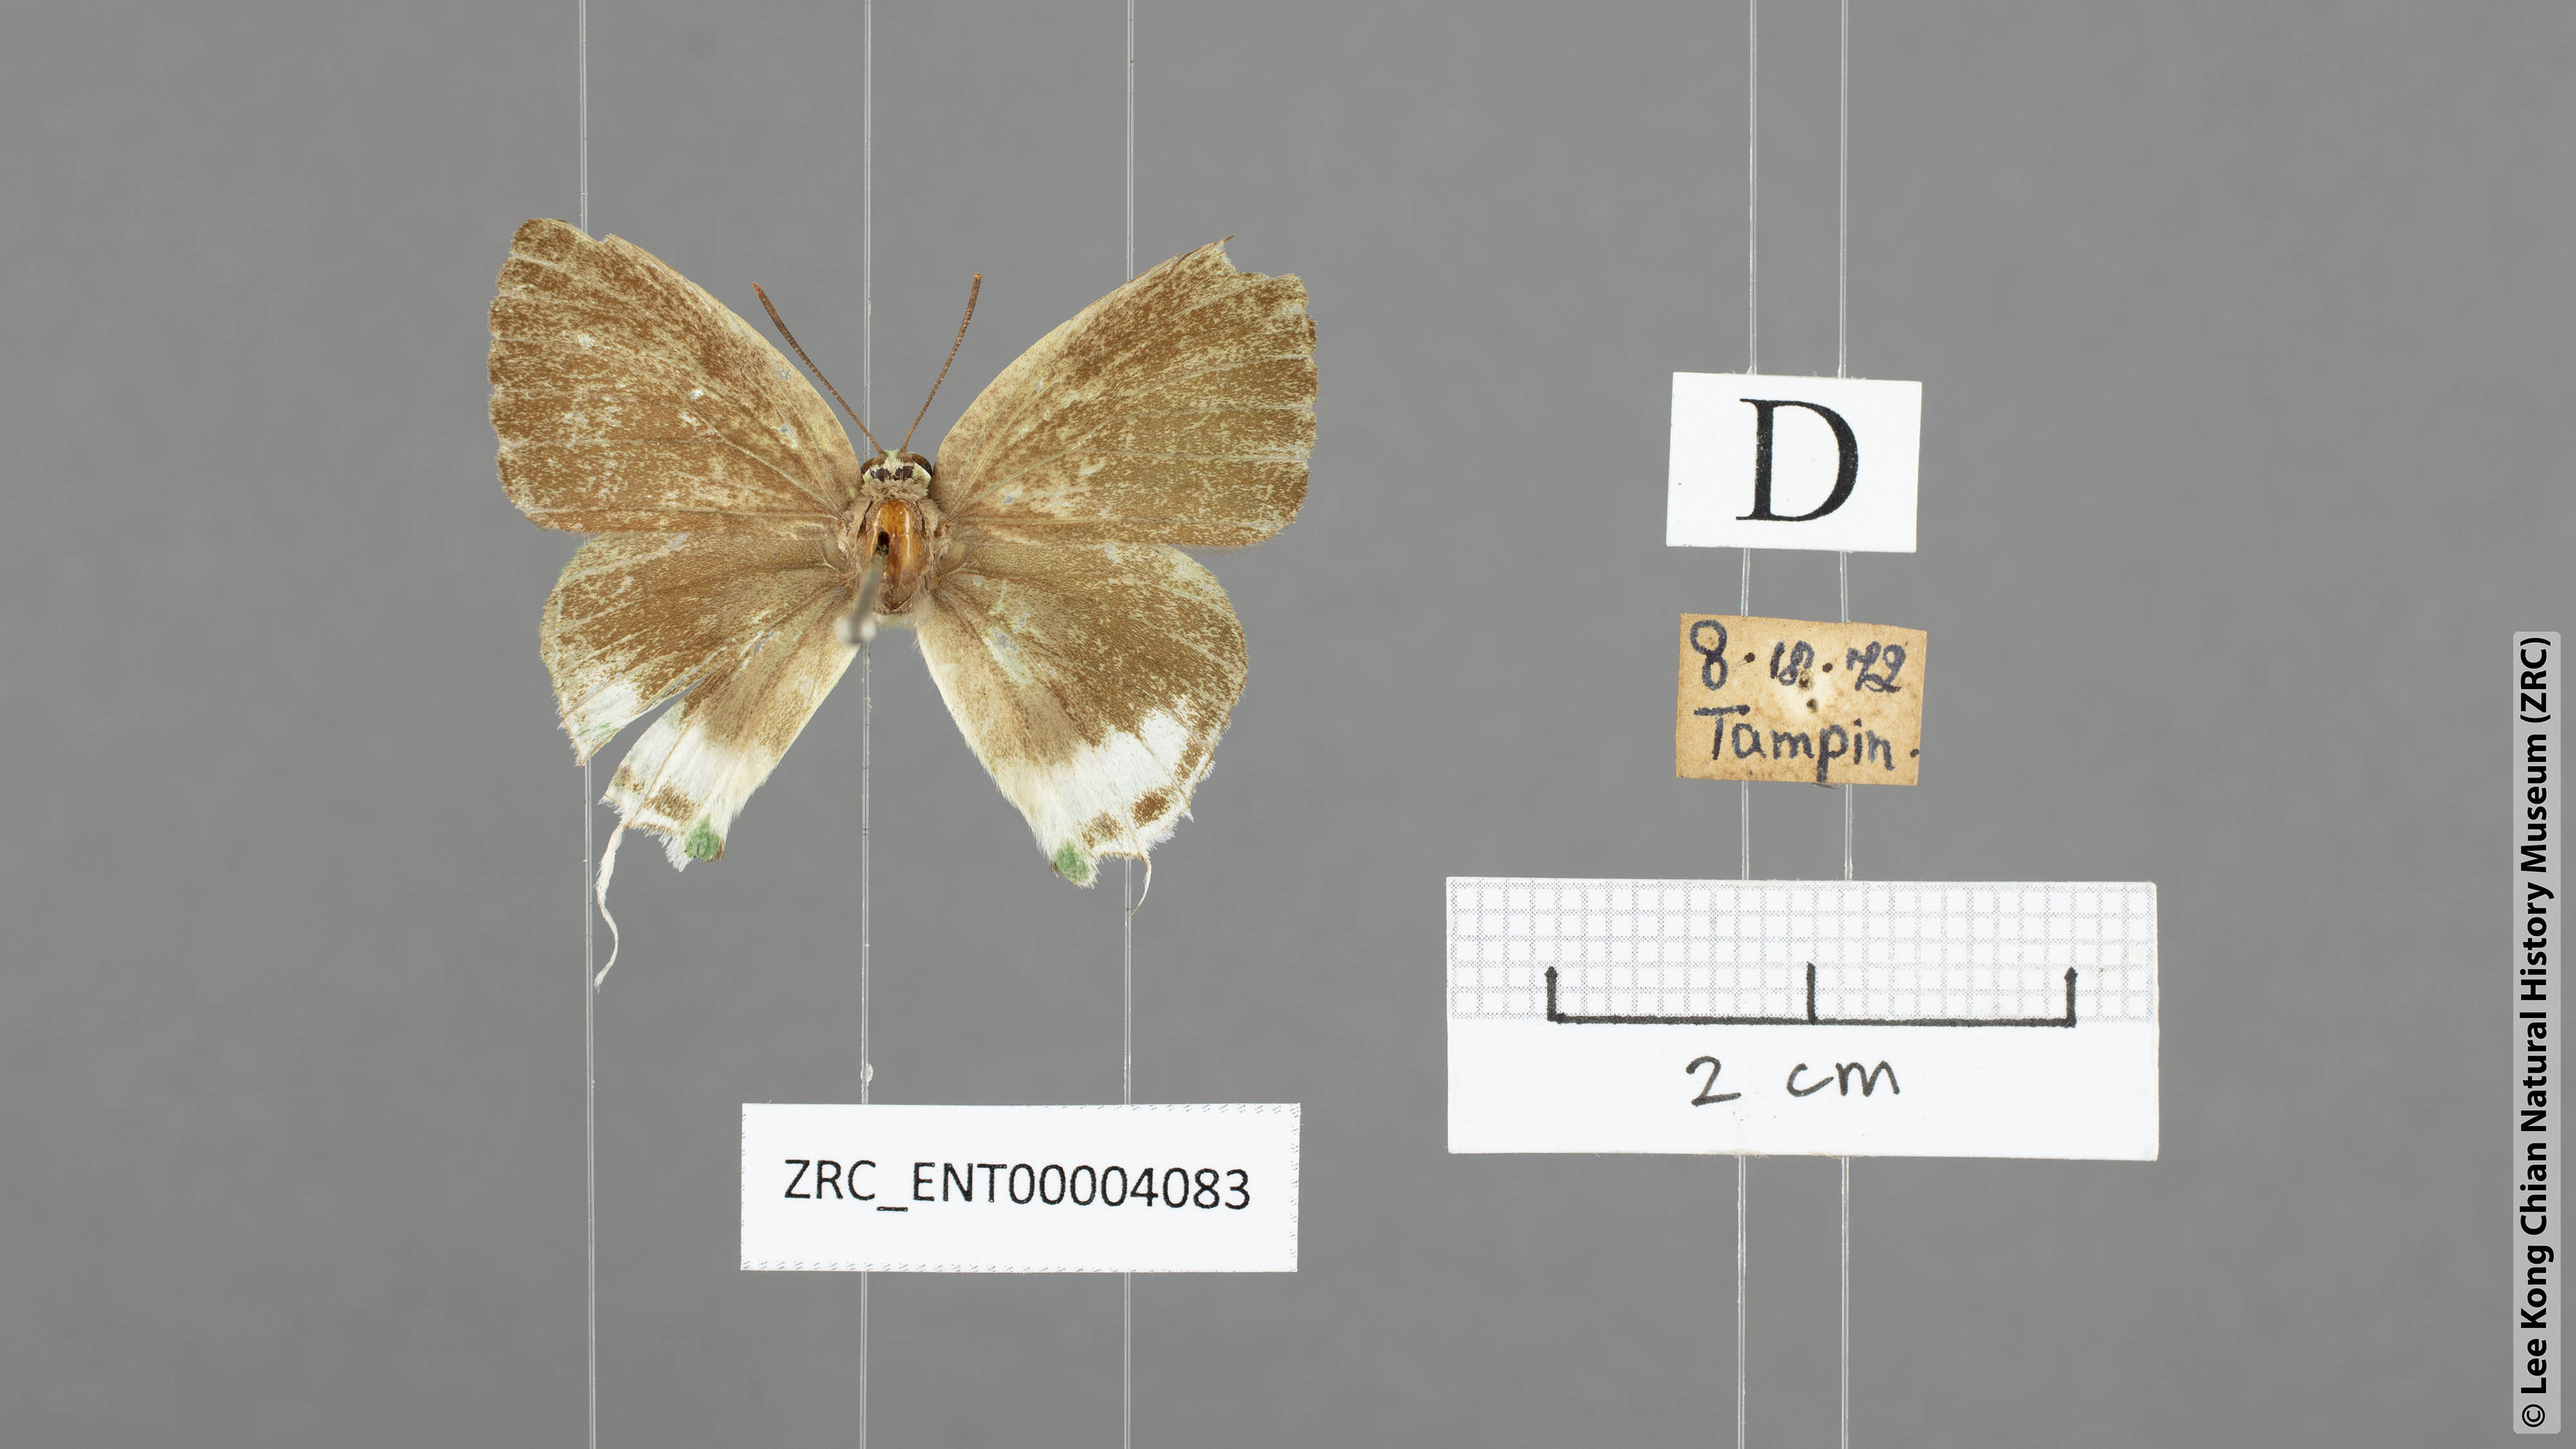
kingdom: Animalia
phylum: Arthropoda
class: Insecta
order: Lepidoptera
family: Lycaenidae
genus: Artipe
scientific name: Artipe eryx
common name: Green flash
